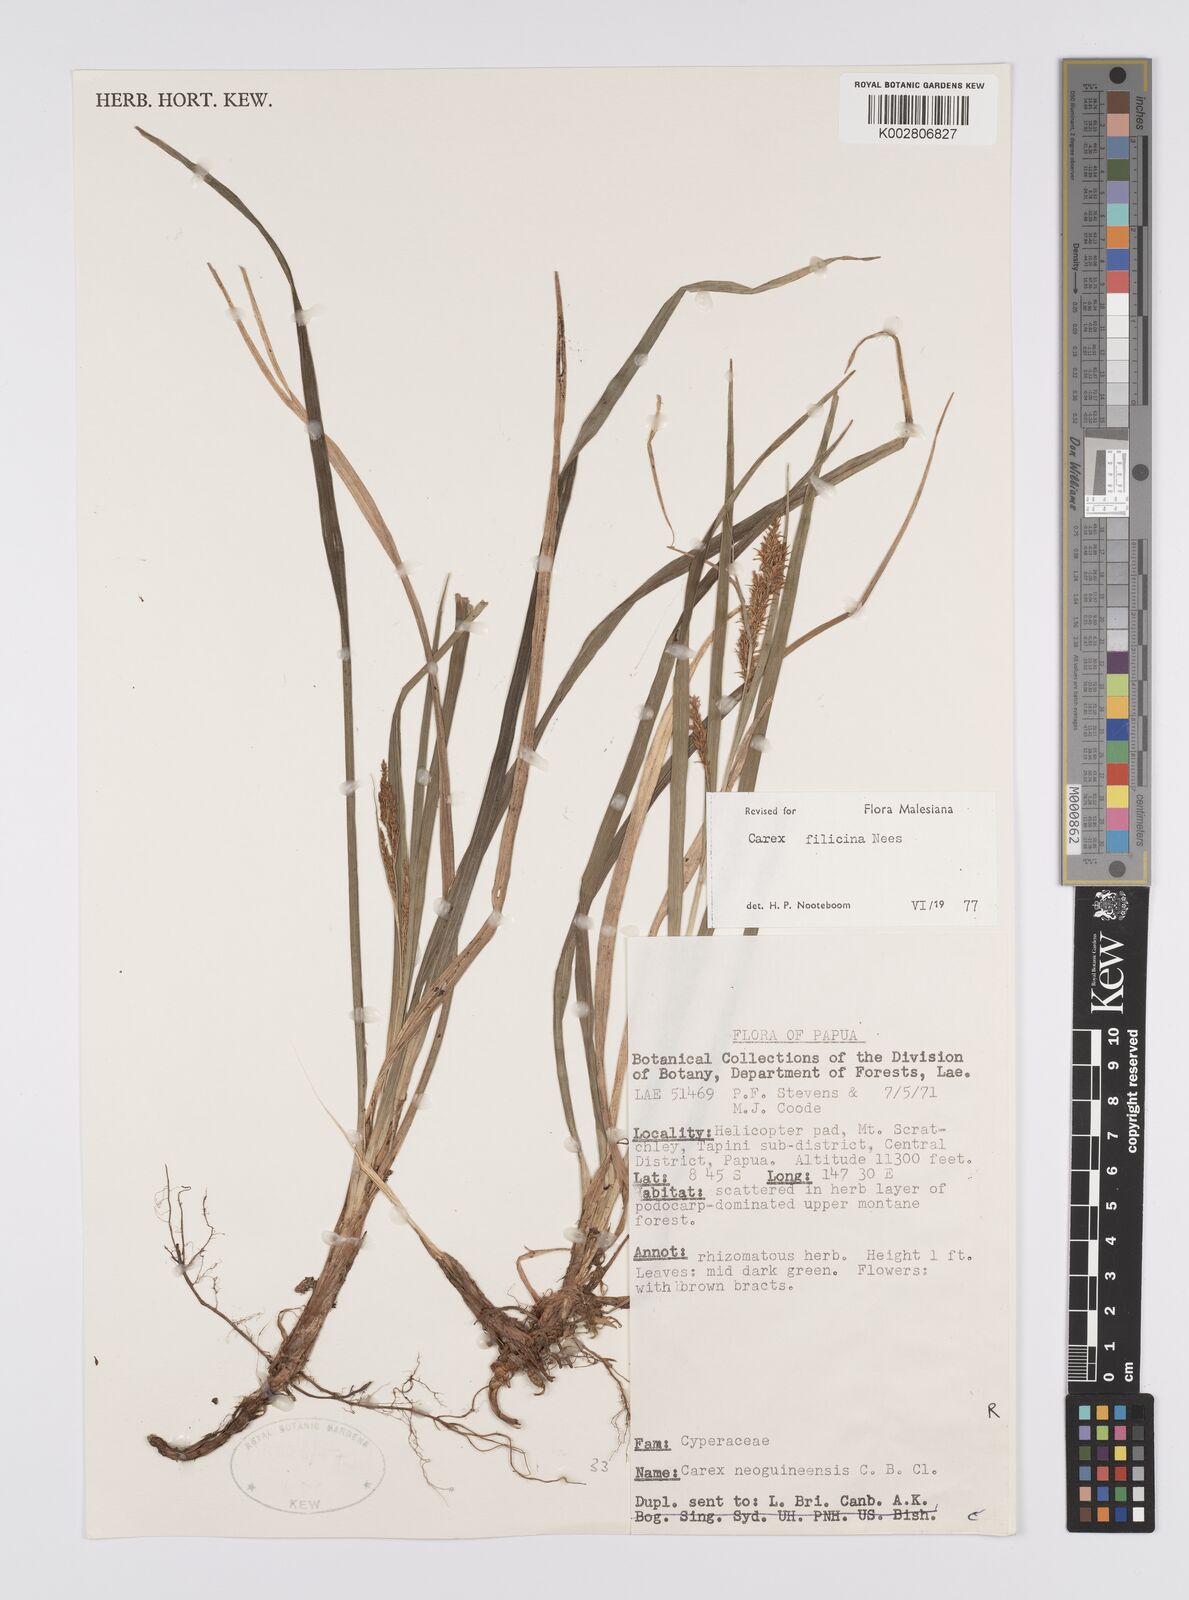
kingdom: Plantae
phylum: Tracheophyta
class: Liliopsida
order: Poales
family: Cyperaceae
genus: Carex
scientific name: Carex filicina
